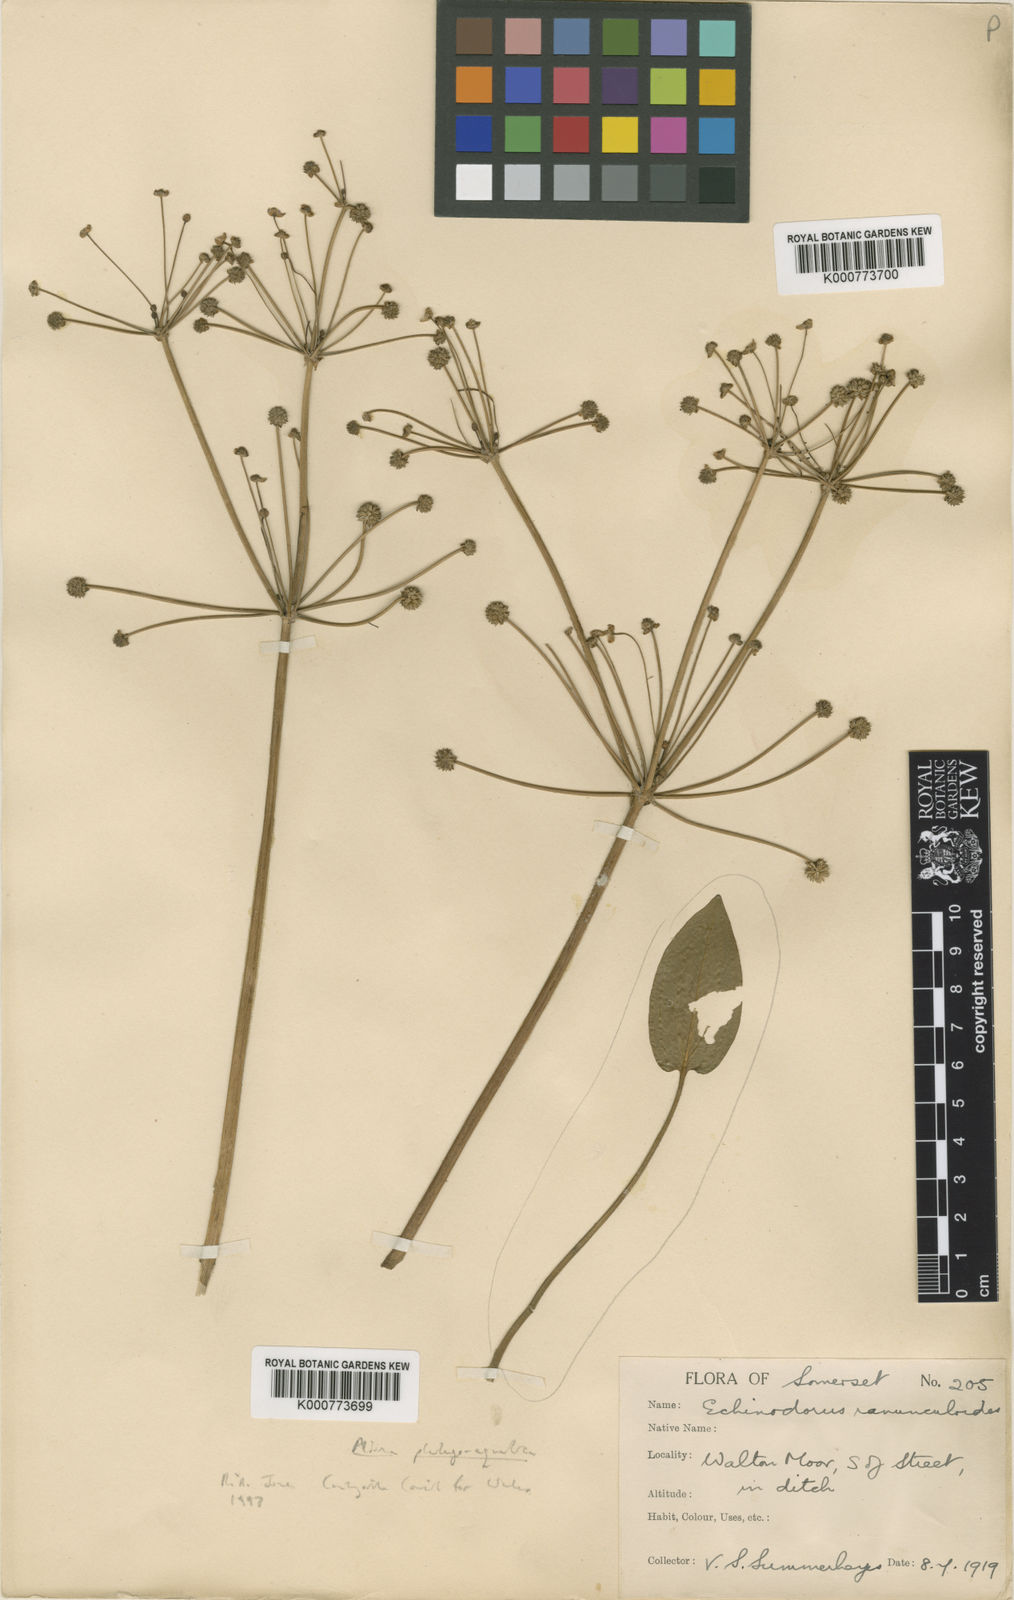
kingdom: Plantae
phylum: Tracheophyta
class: Liliopsida
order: Alismatales
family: Alismataceae
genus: Baldellia
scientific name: Baldellia ranunculoides
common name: Lesser water-plantain
